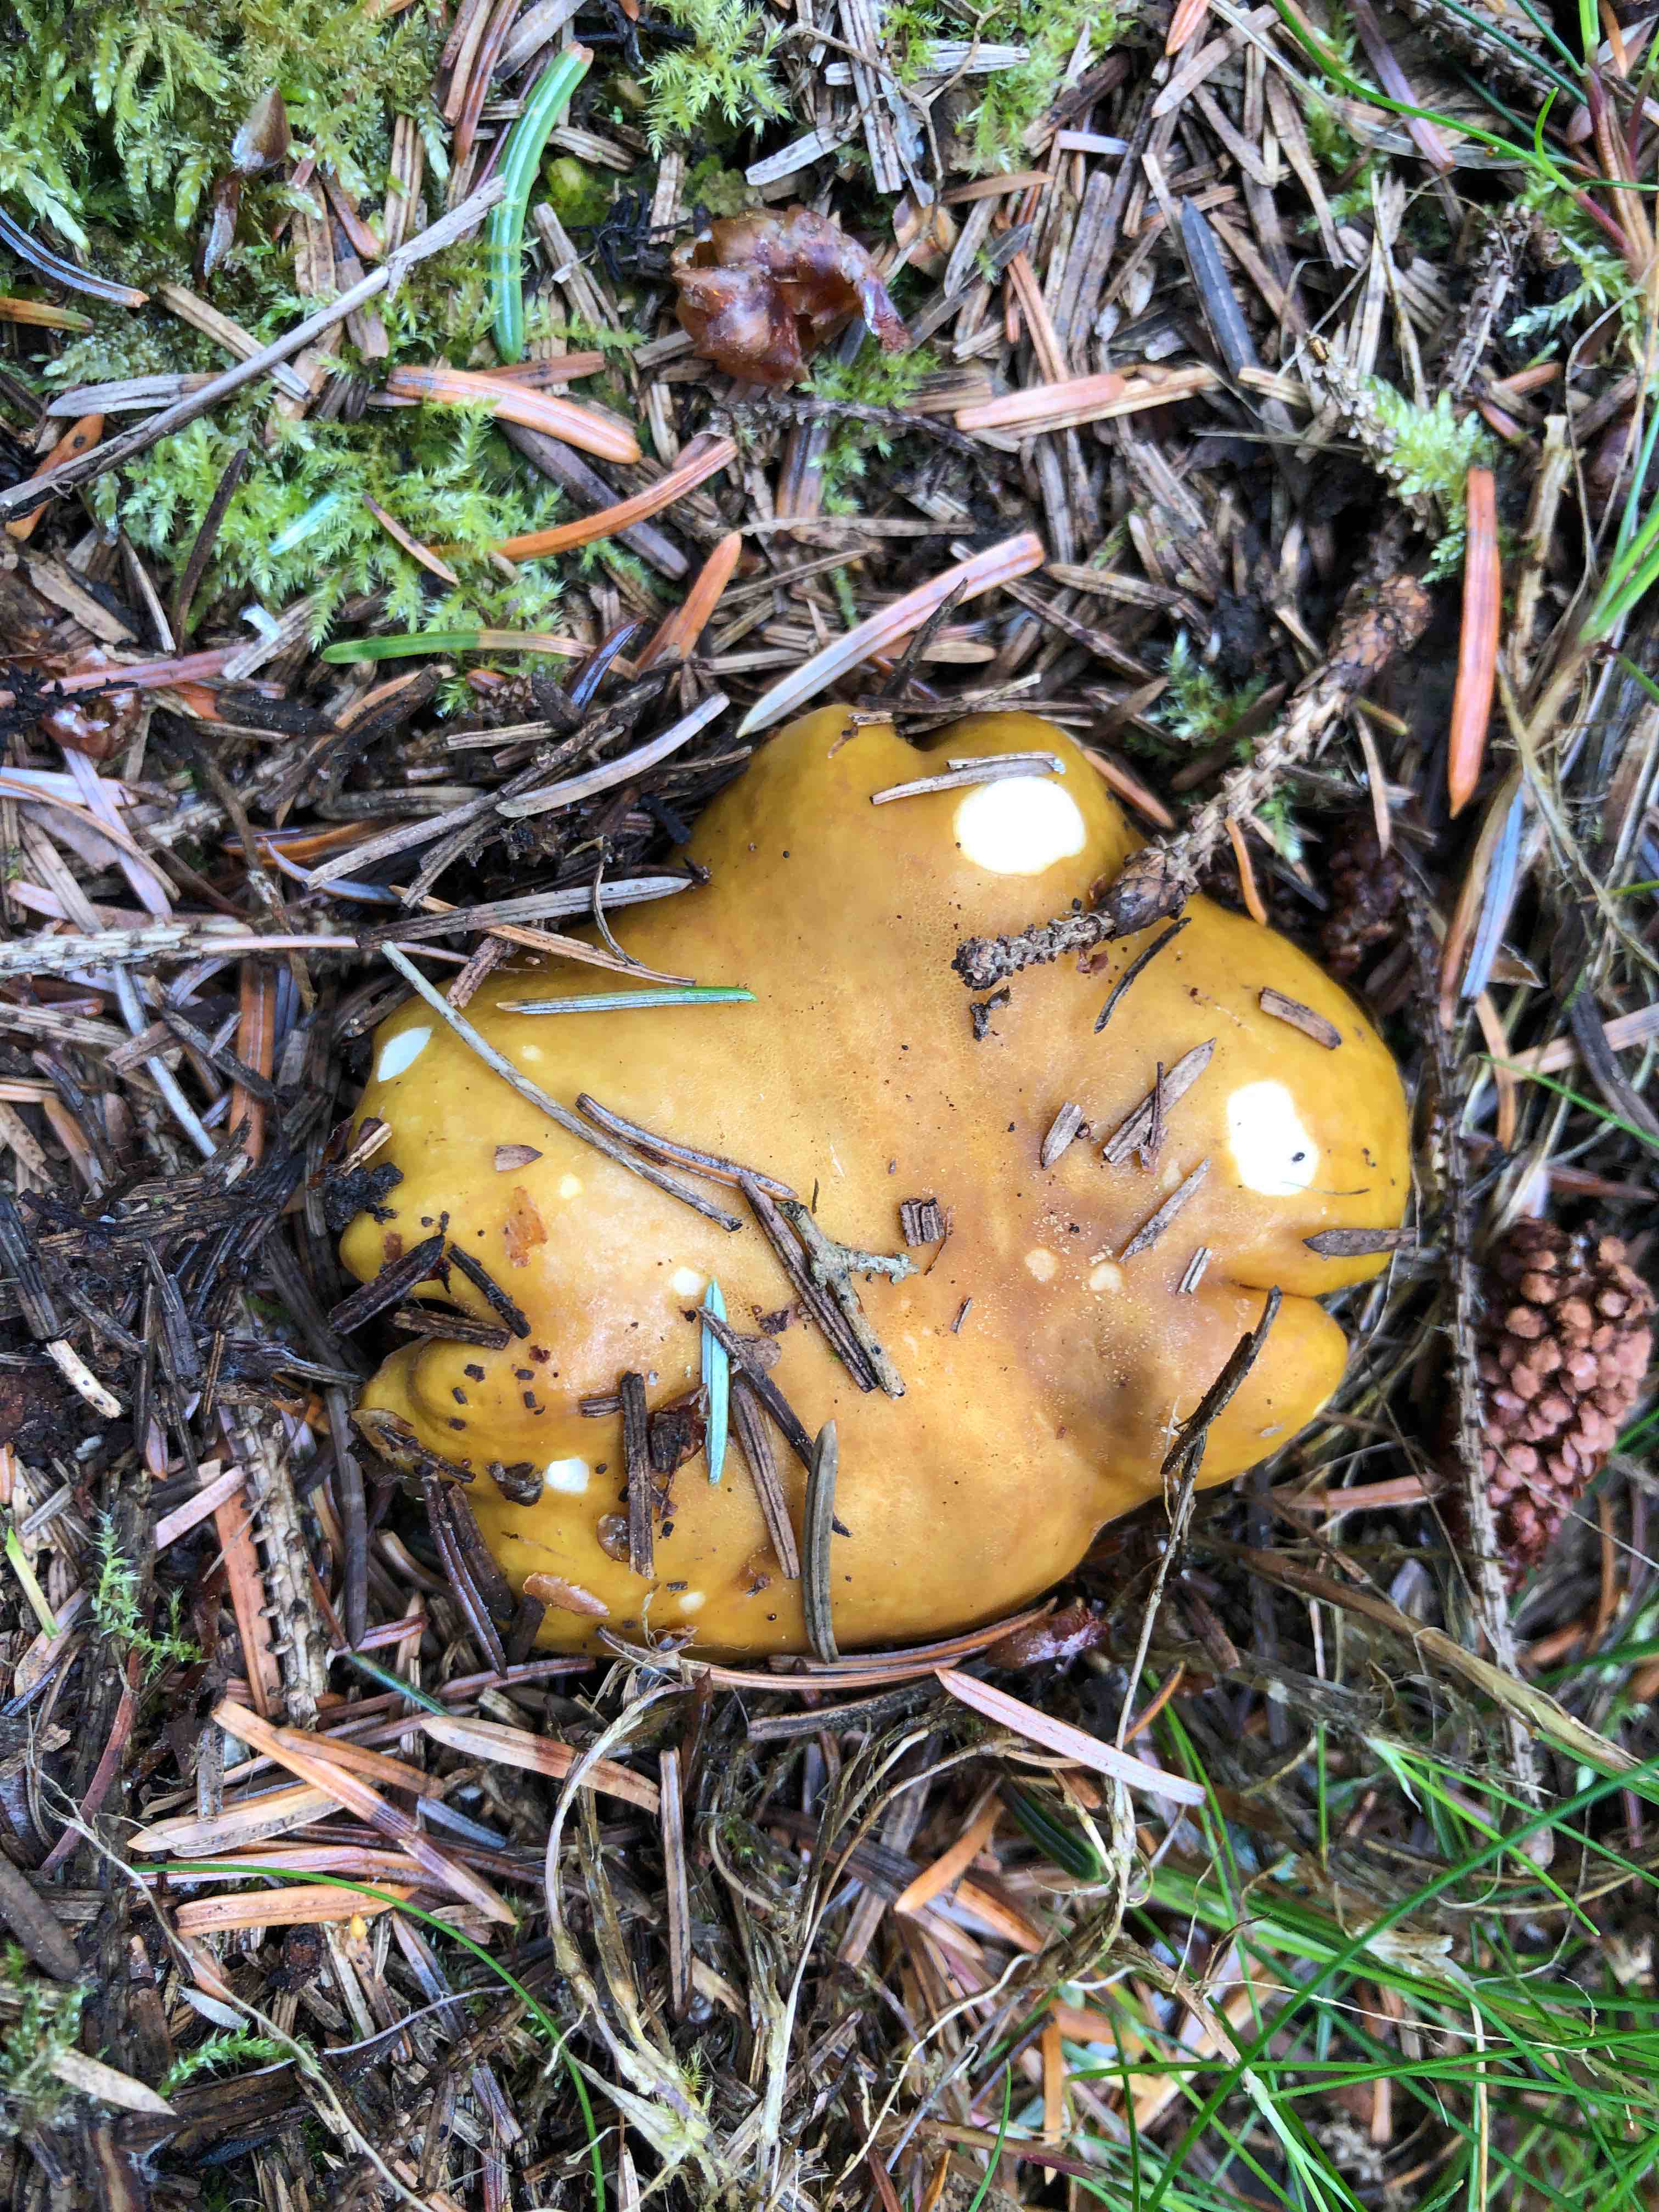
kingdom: Fungi
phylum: Basidiomycota
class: Agaricomycetes
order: Russulales
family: Russulaceae
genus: Russula
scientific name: Russula ochroleuca
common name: okkergul skørhat
